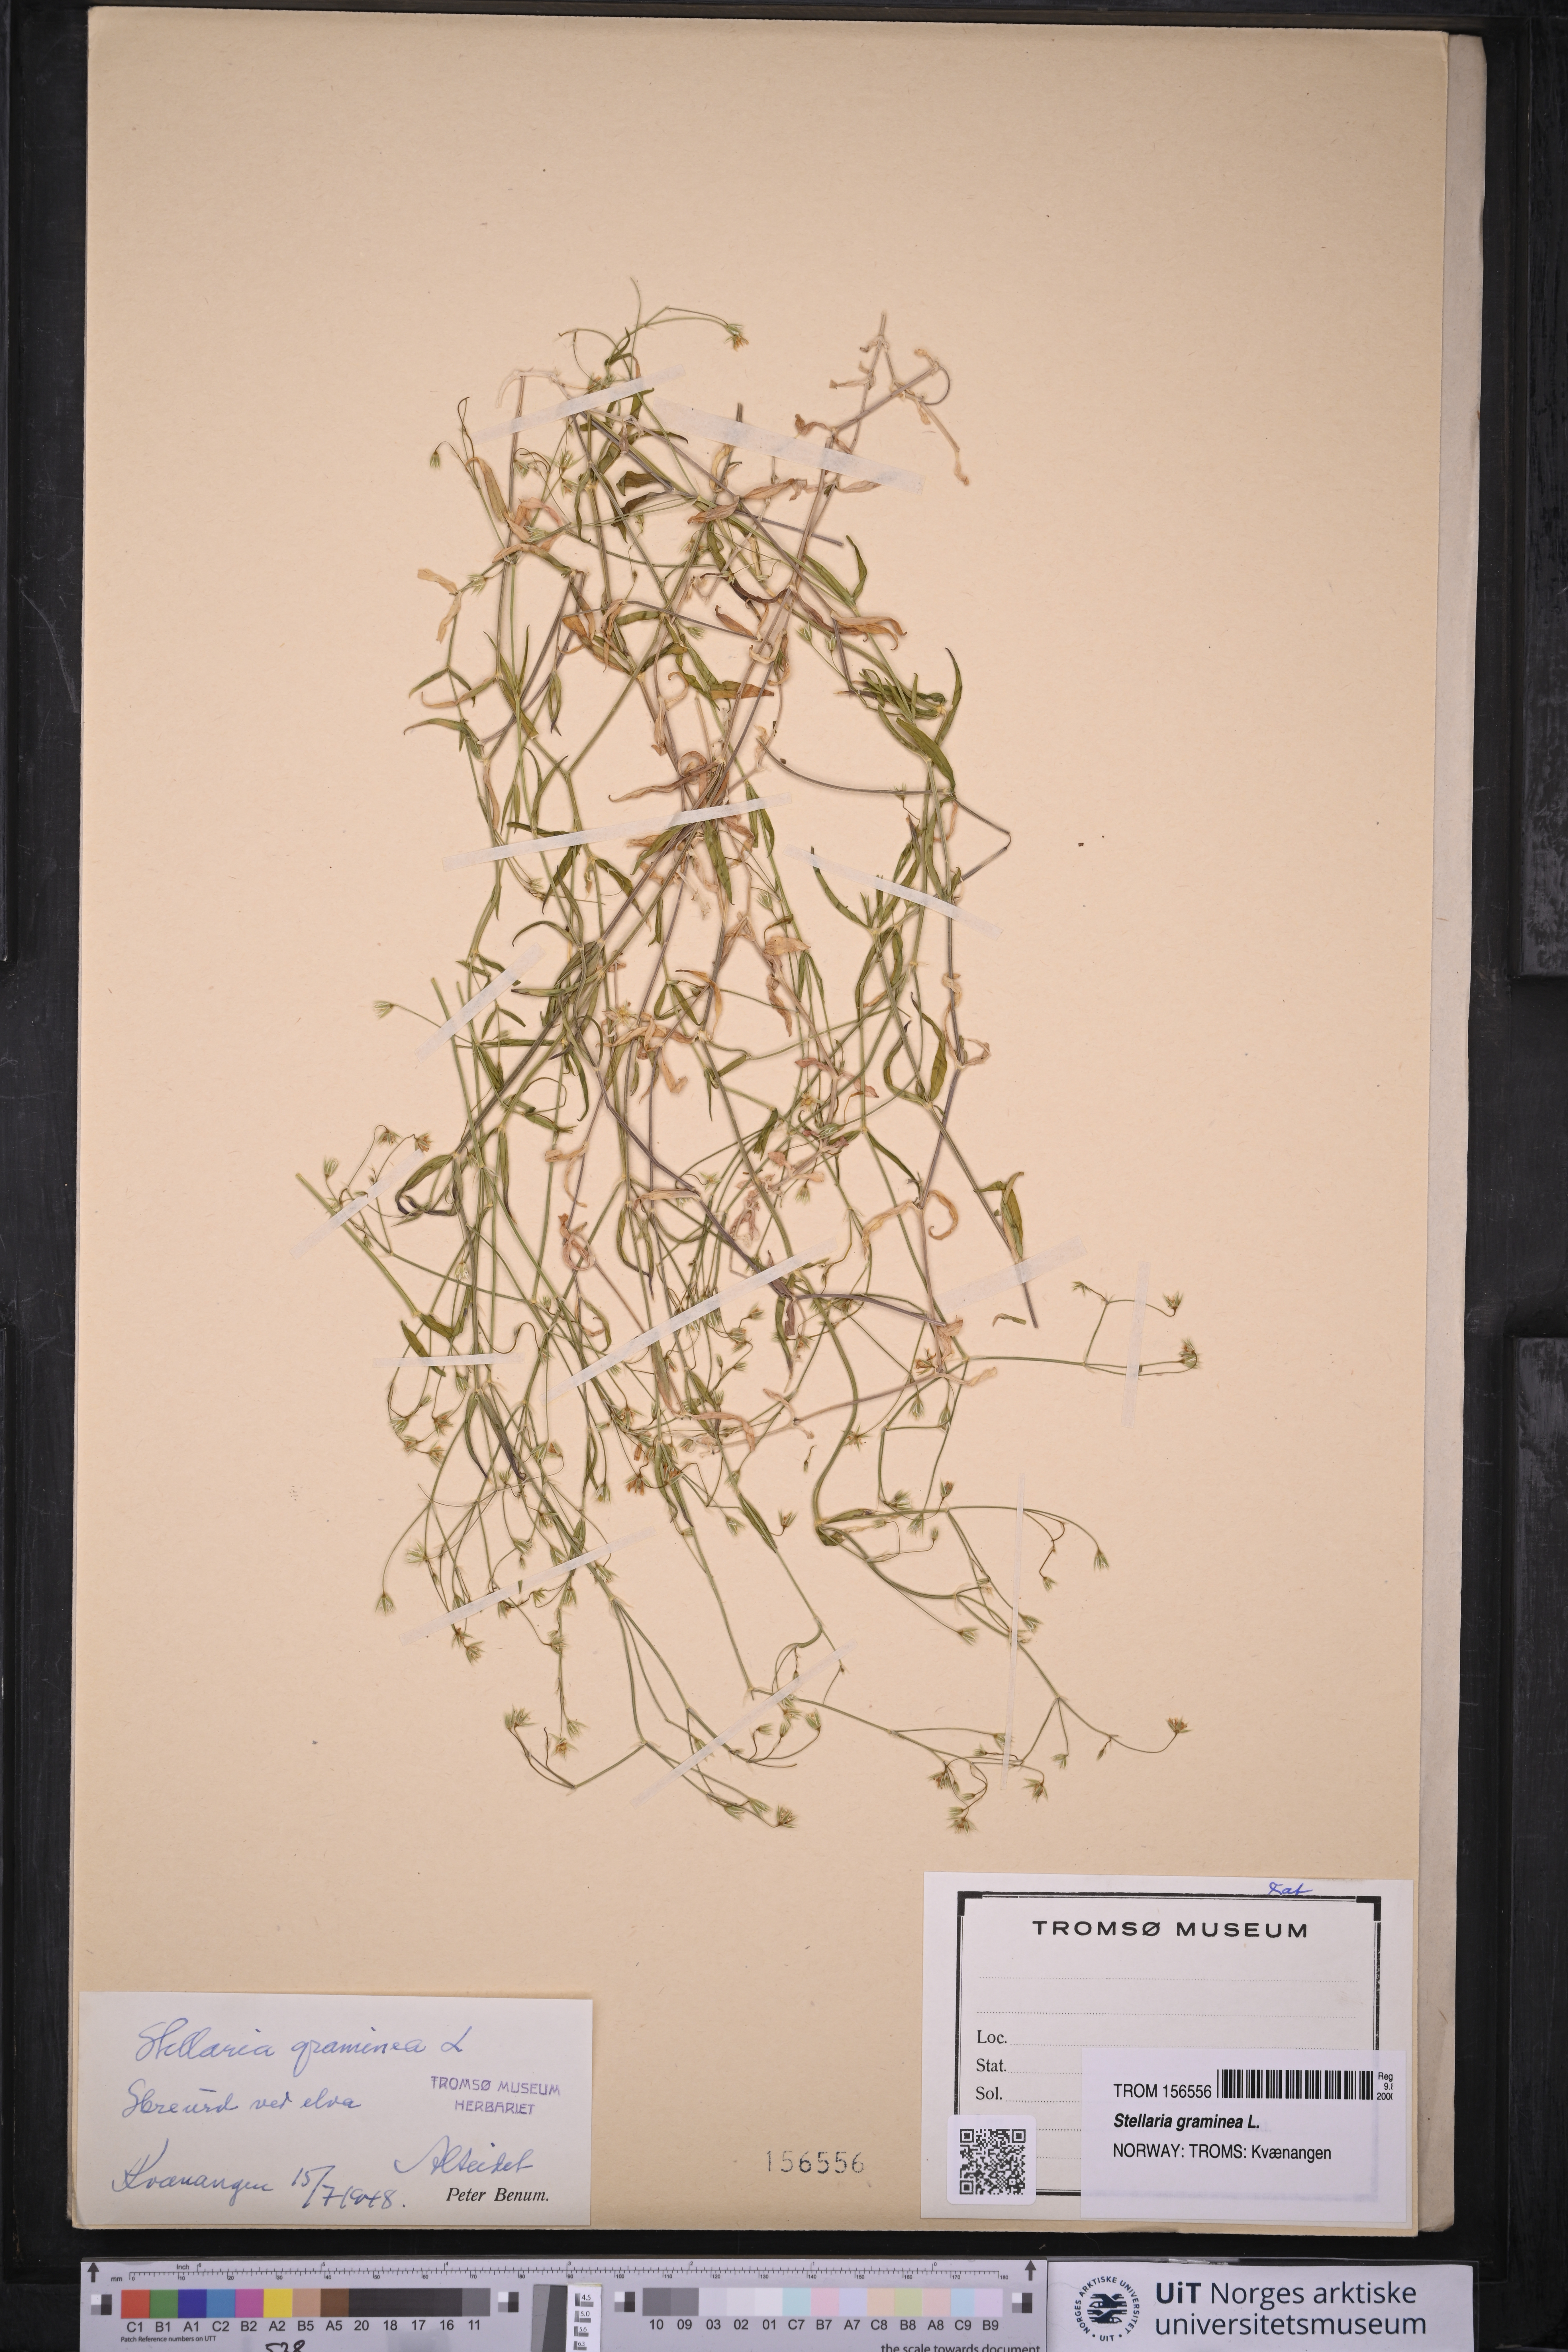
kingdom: Plantae
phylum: Tracheophyta
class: Magnoliopsida
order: Caryophyllales
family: Caryophyllaceae
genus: Stellaria
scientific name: Stellaria graminea
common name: Grass-like starwort
